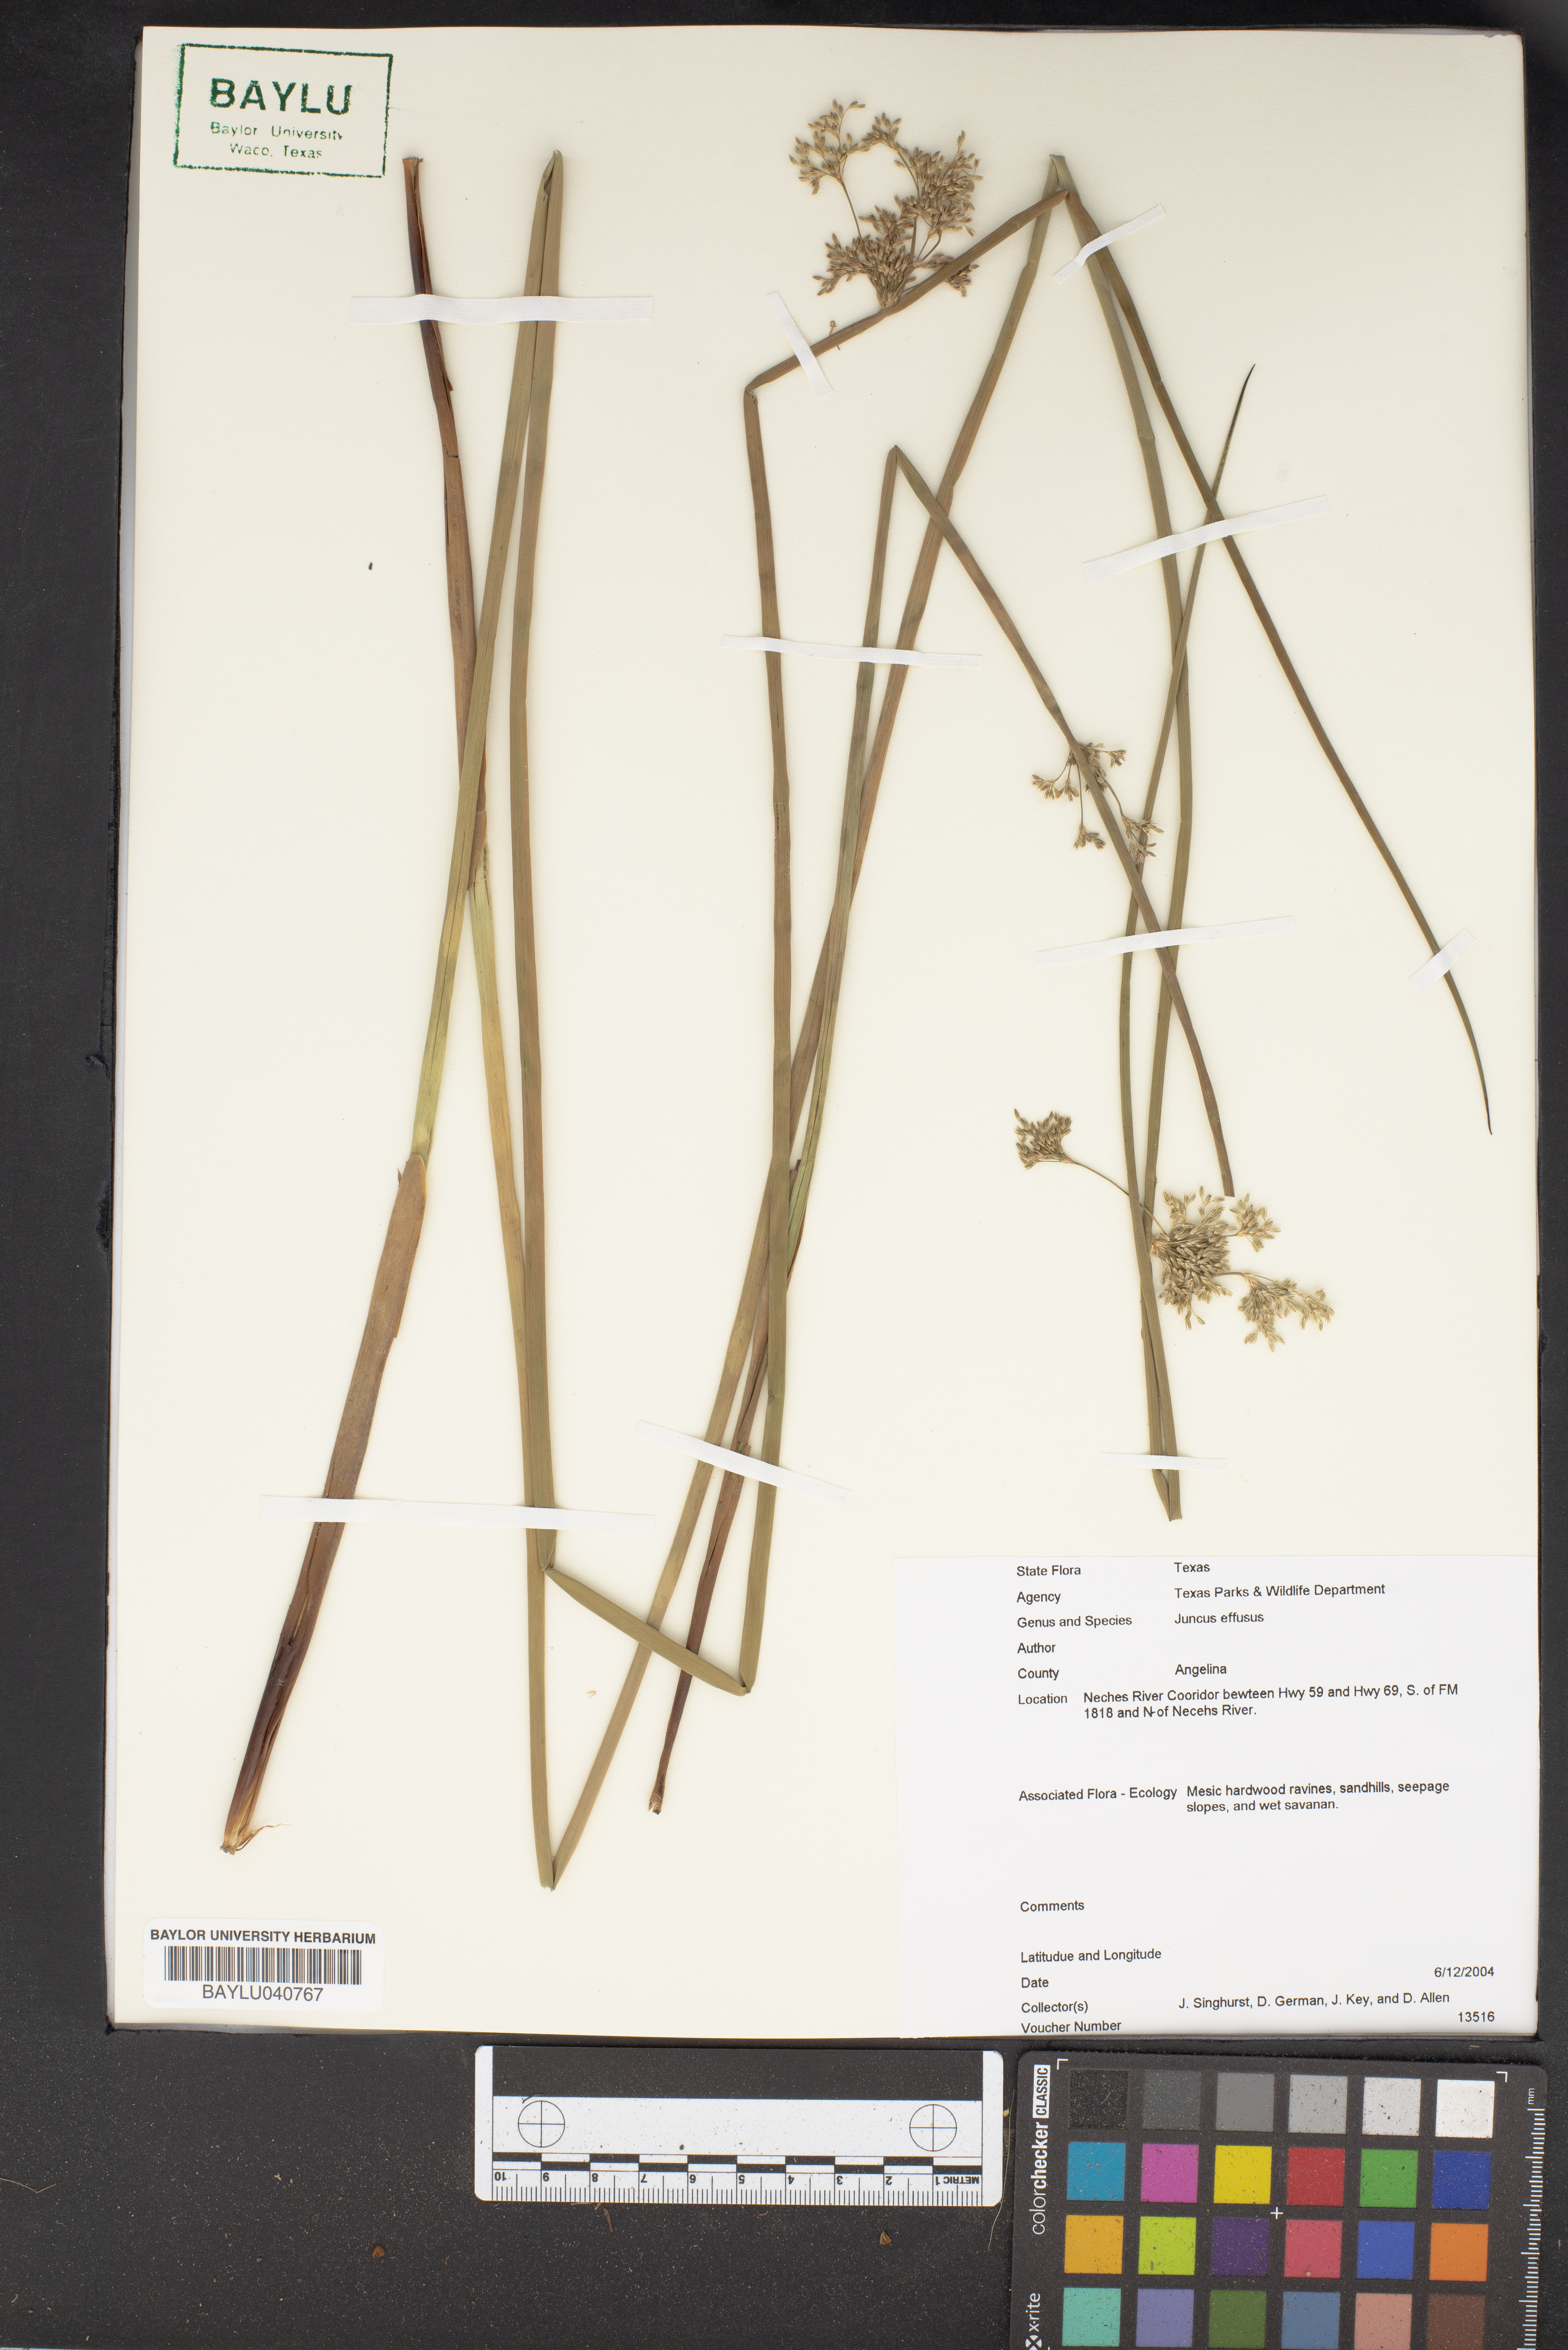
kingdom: Plantae
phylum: Tracheophyta
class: Liliopsida
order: Poales
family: Juncaceae
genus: Juncus
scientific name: Juncus effusus
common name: Soft rush
